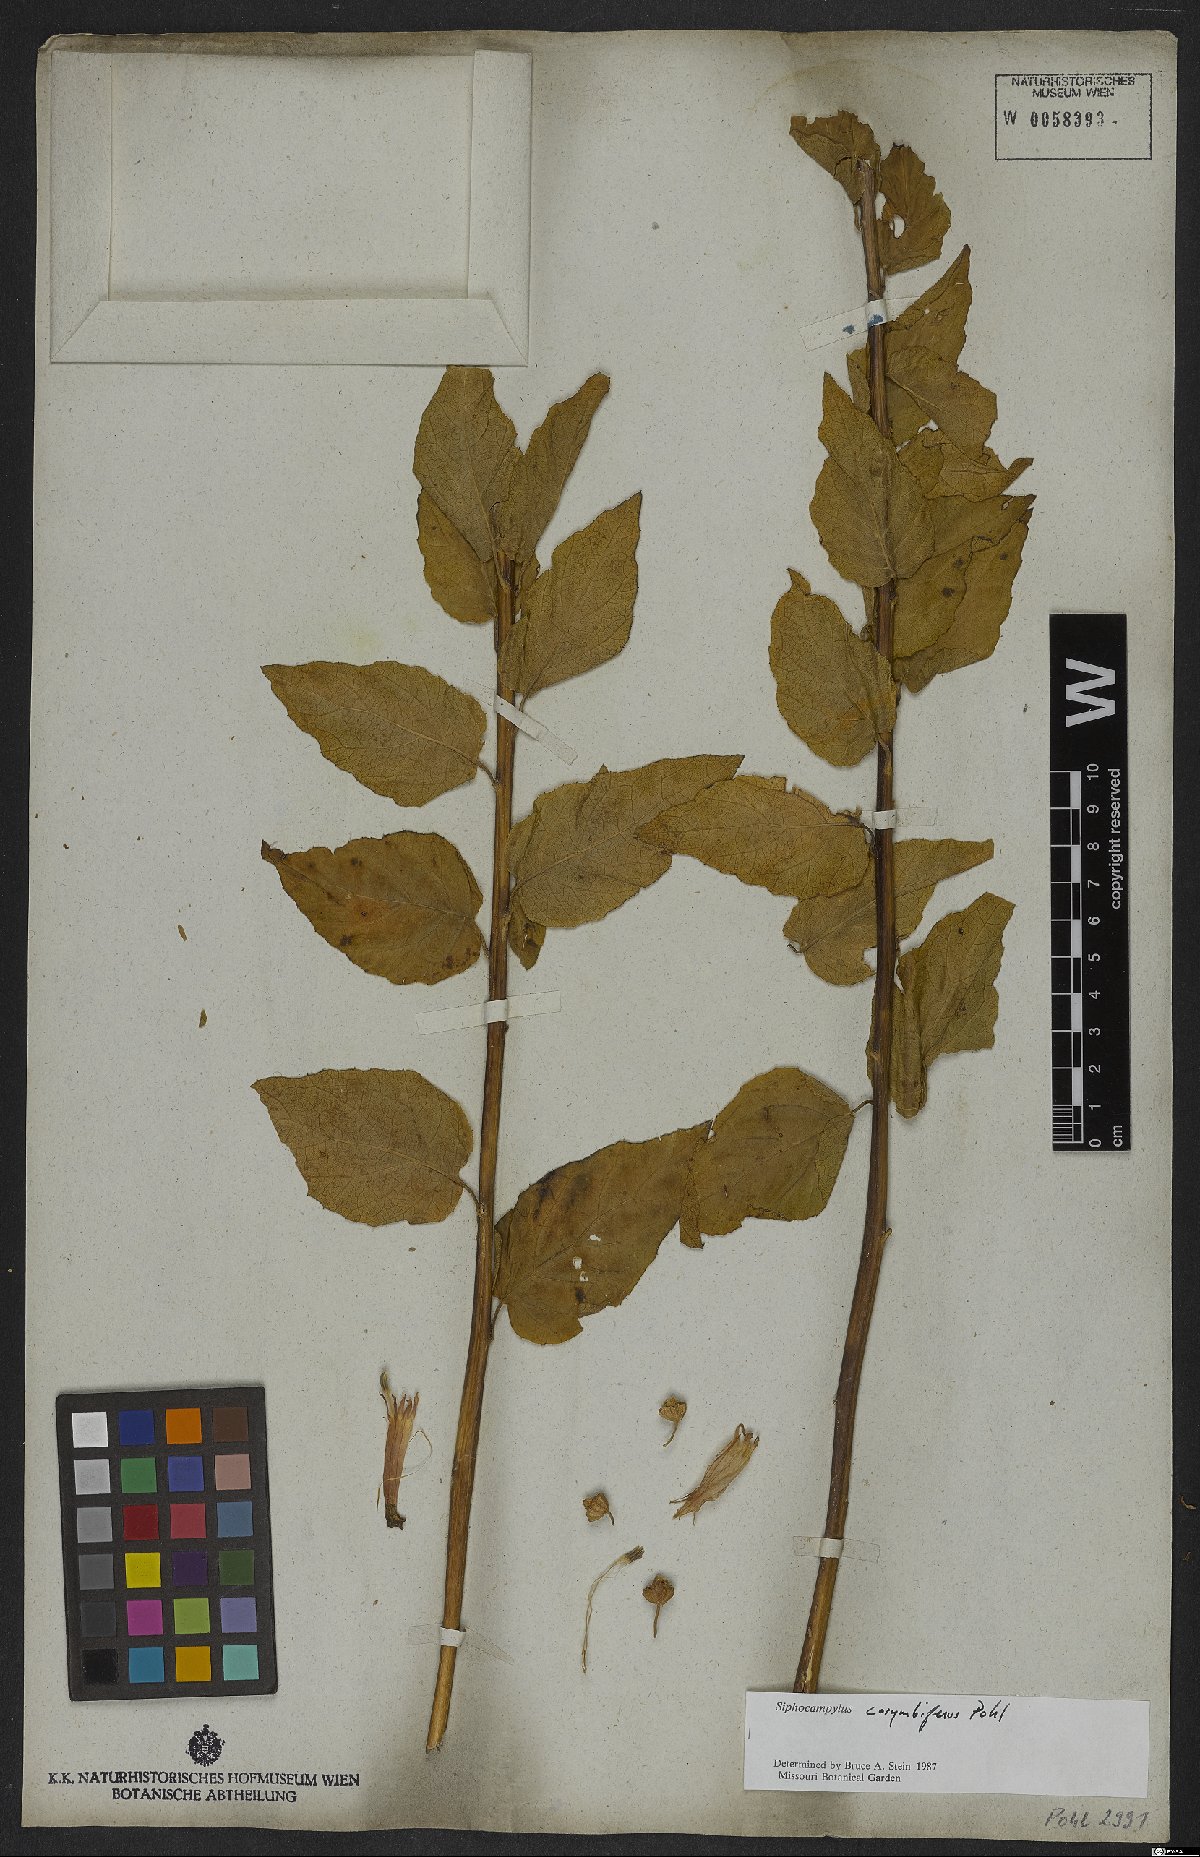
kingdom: Plantae
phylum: Tracheophyta
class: Magnoliopsida
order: Asterales
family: Campanulaceae
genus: Siphocampylus
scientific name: Siphocampylus corymbiferus
